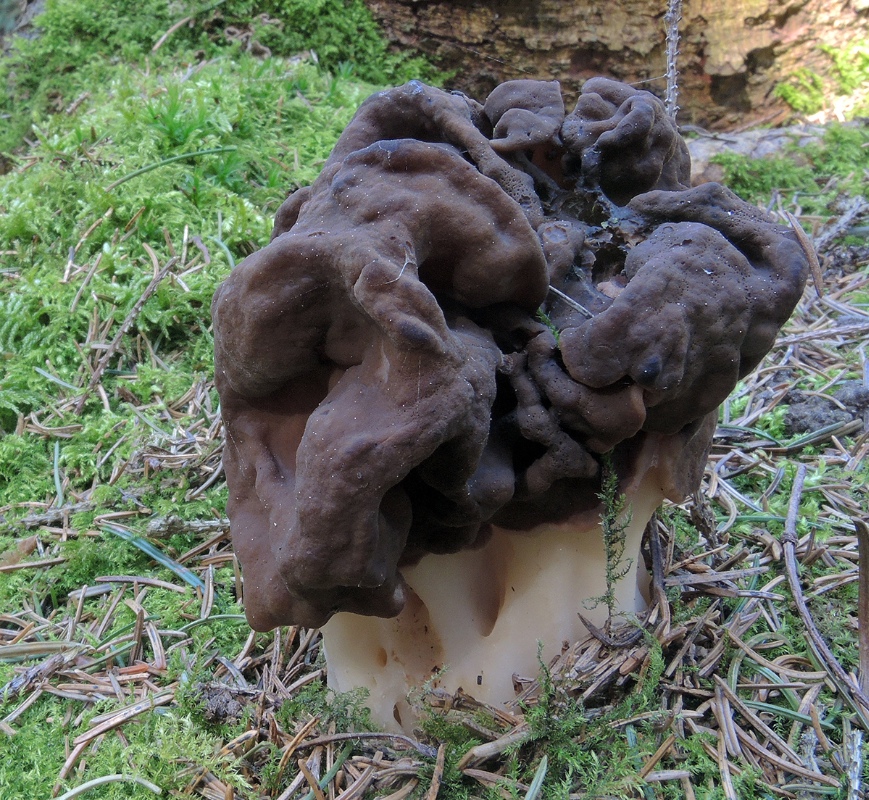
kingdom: Fungi
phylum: Ascomycota
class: Pezizomycetes
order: Pezizales
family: Discinaceae
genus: Gyromitra
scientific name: Gyromitra gigas
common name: kæmpe-stenmorkel
